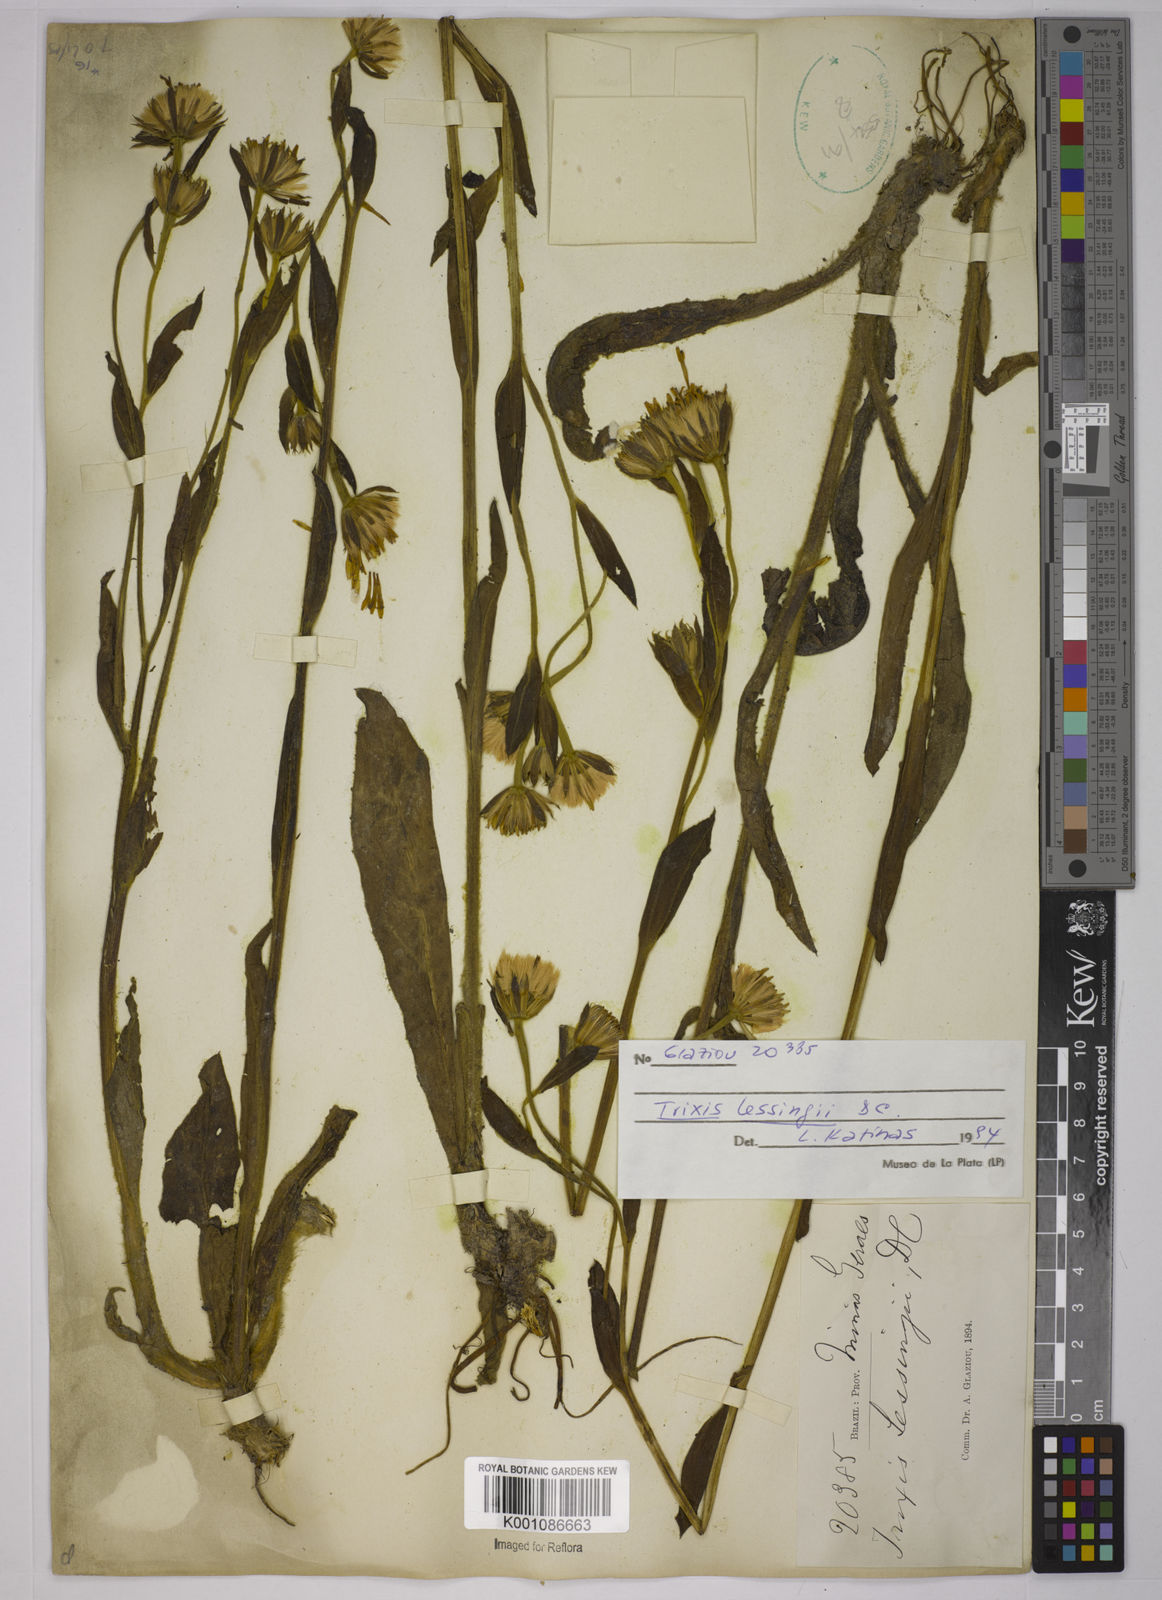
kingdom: Plantae
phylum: Tracheophyta
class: Magnoliopsida
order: Asterales
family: Asteraceae
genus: Trixis
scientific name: Trixis lessingii
